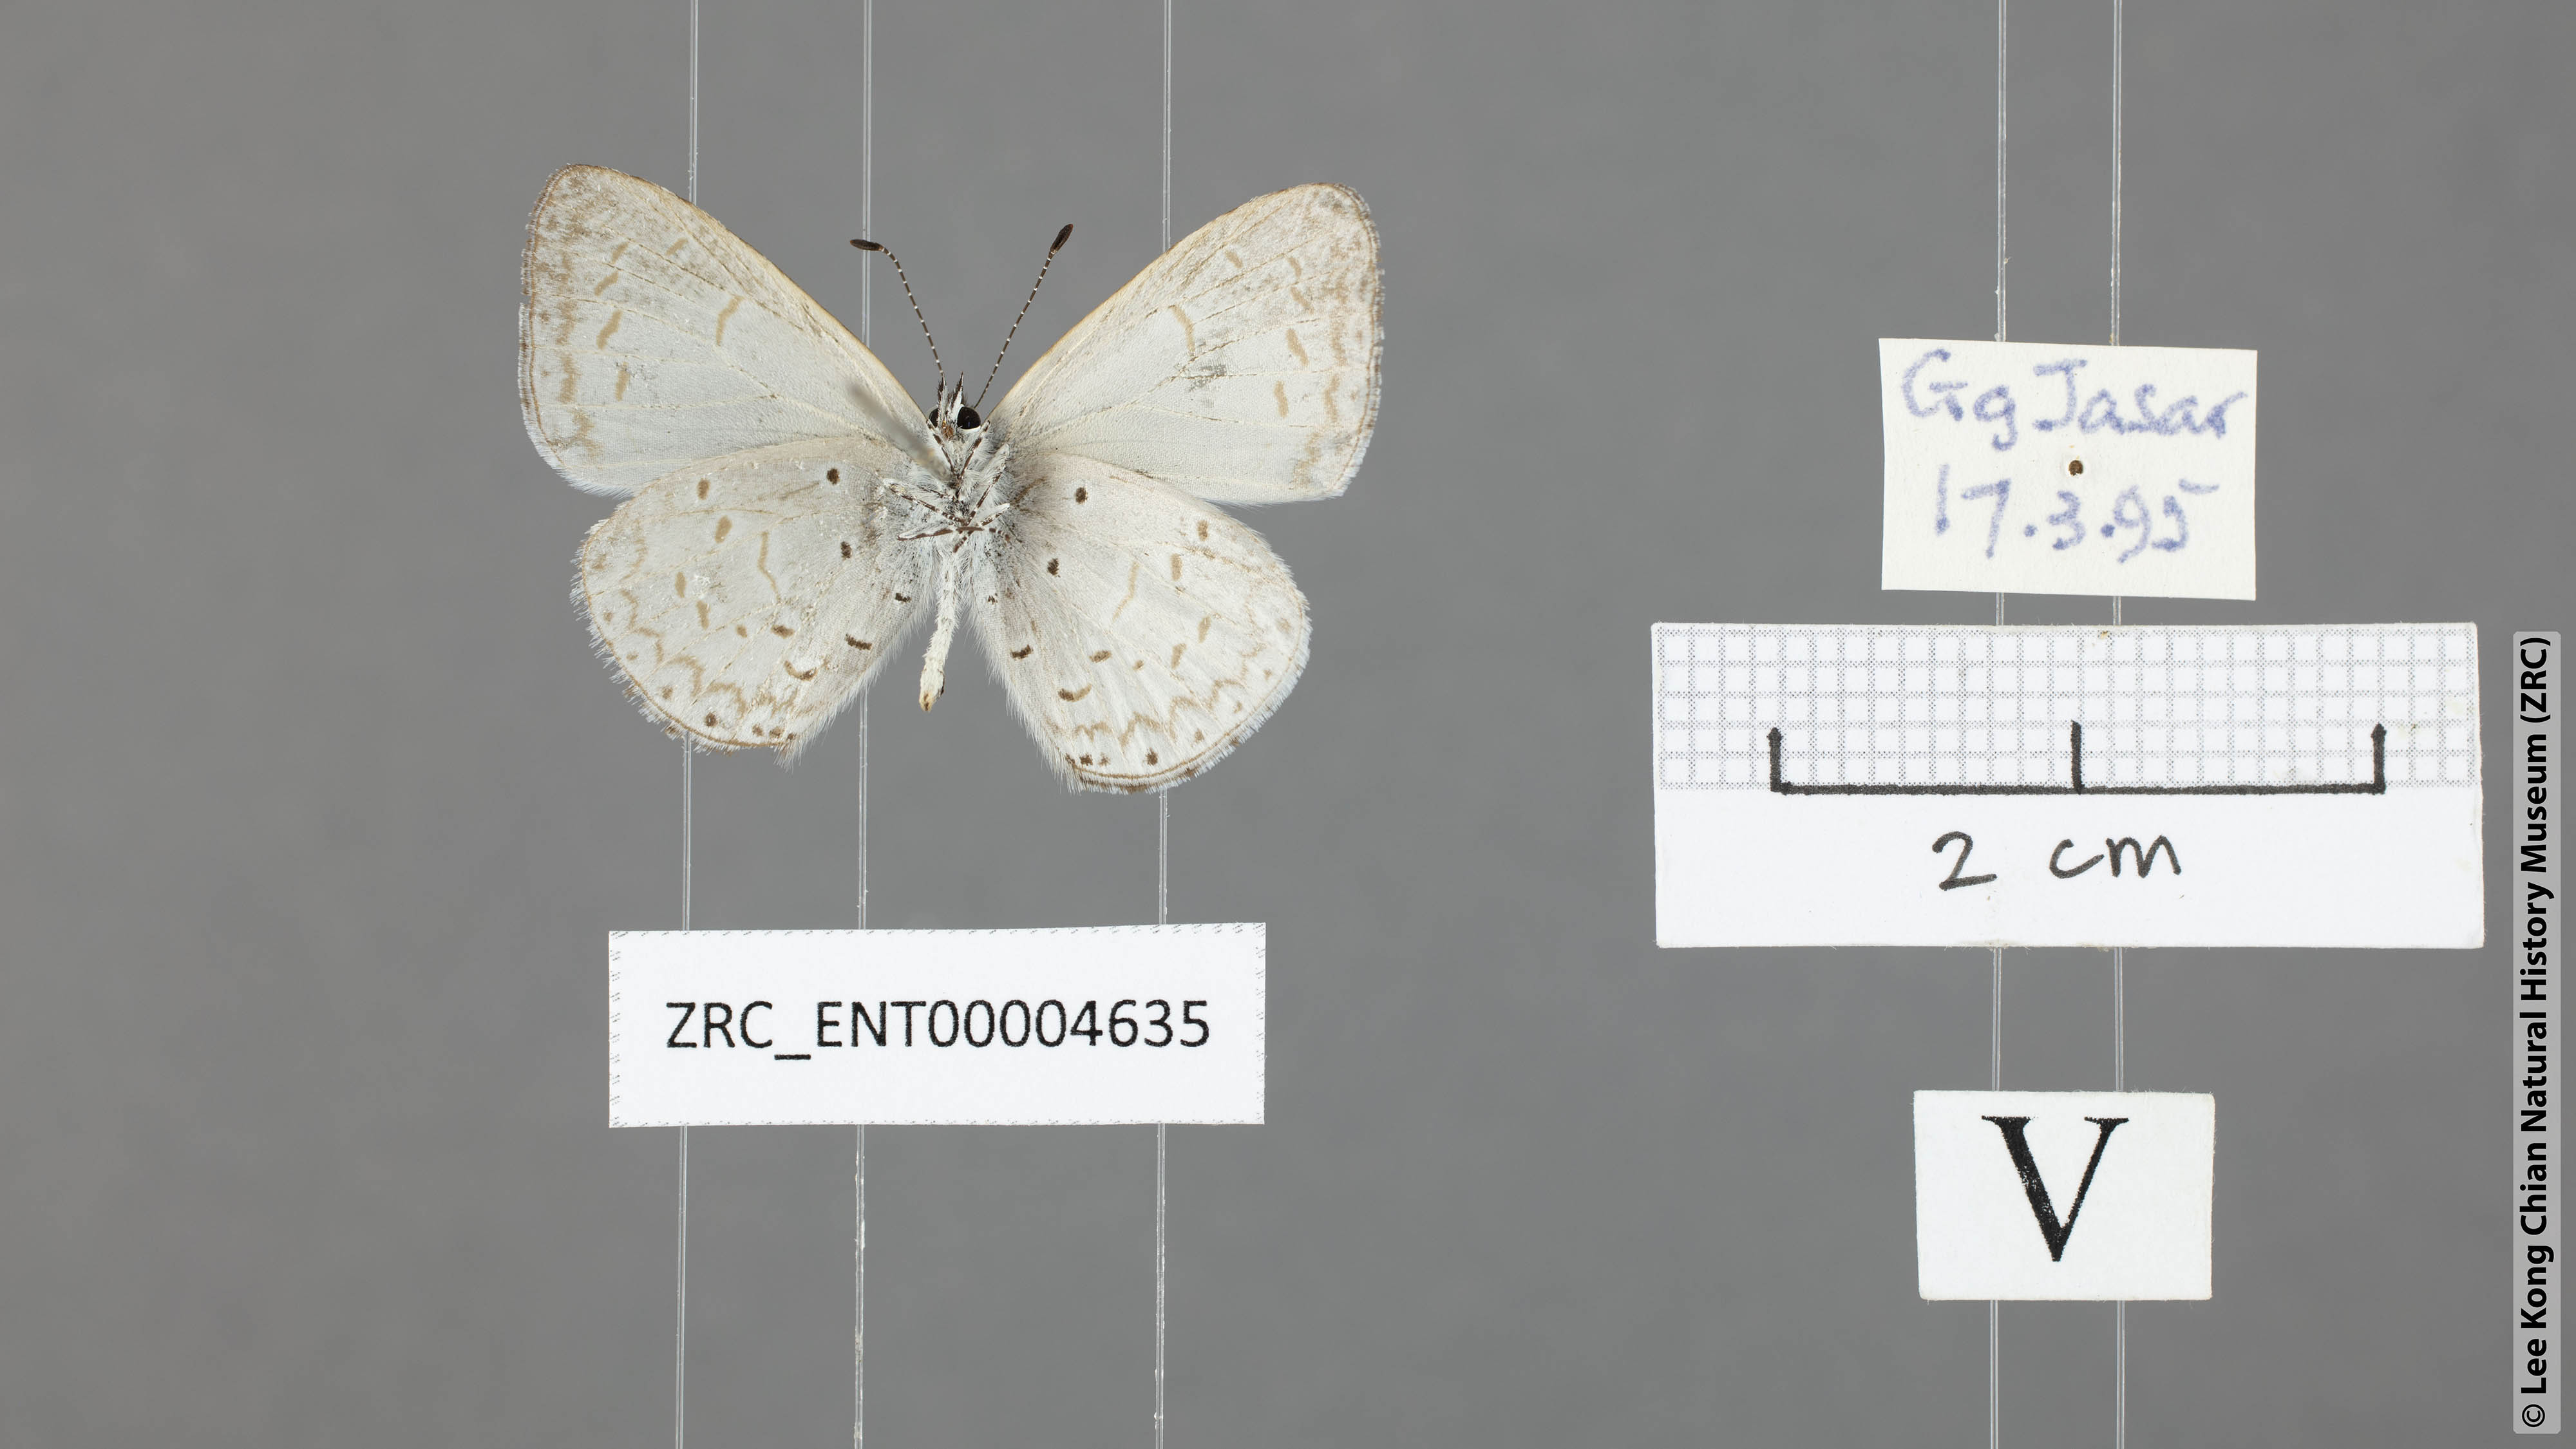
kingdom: Animalia
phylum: Arthropoda
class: Insecta
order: Lepidoptera
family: Lycaenidae
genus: Udara
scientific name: Udara
